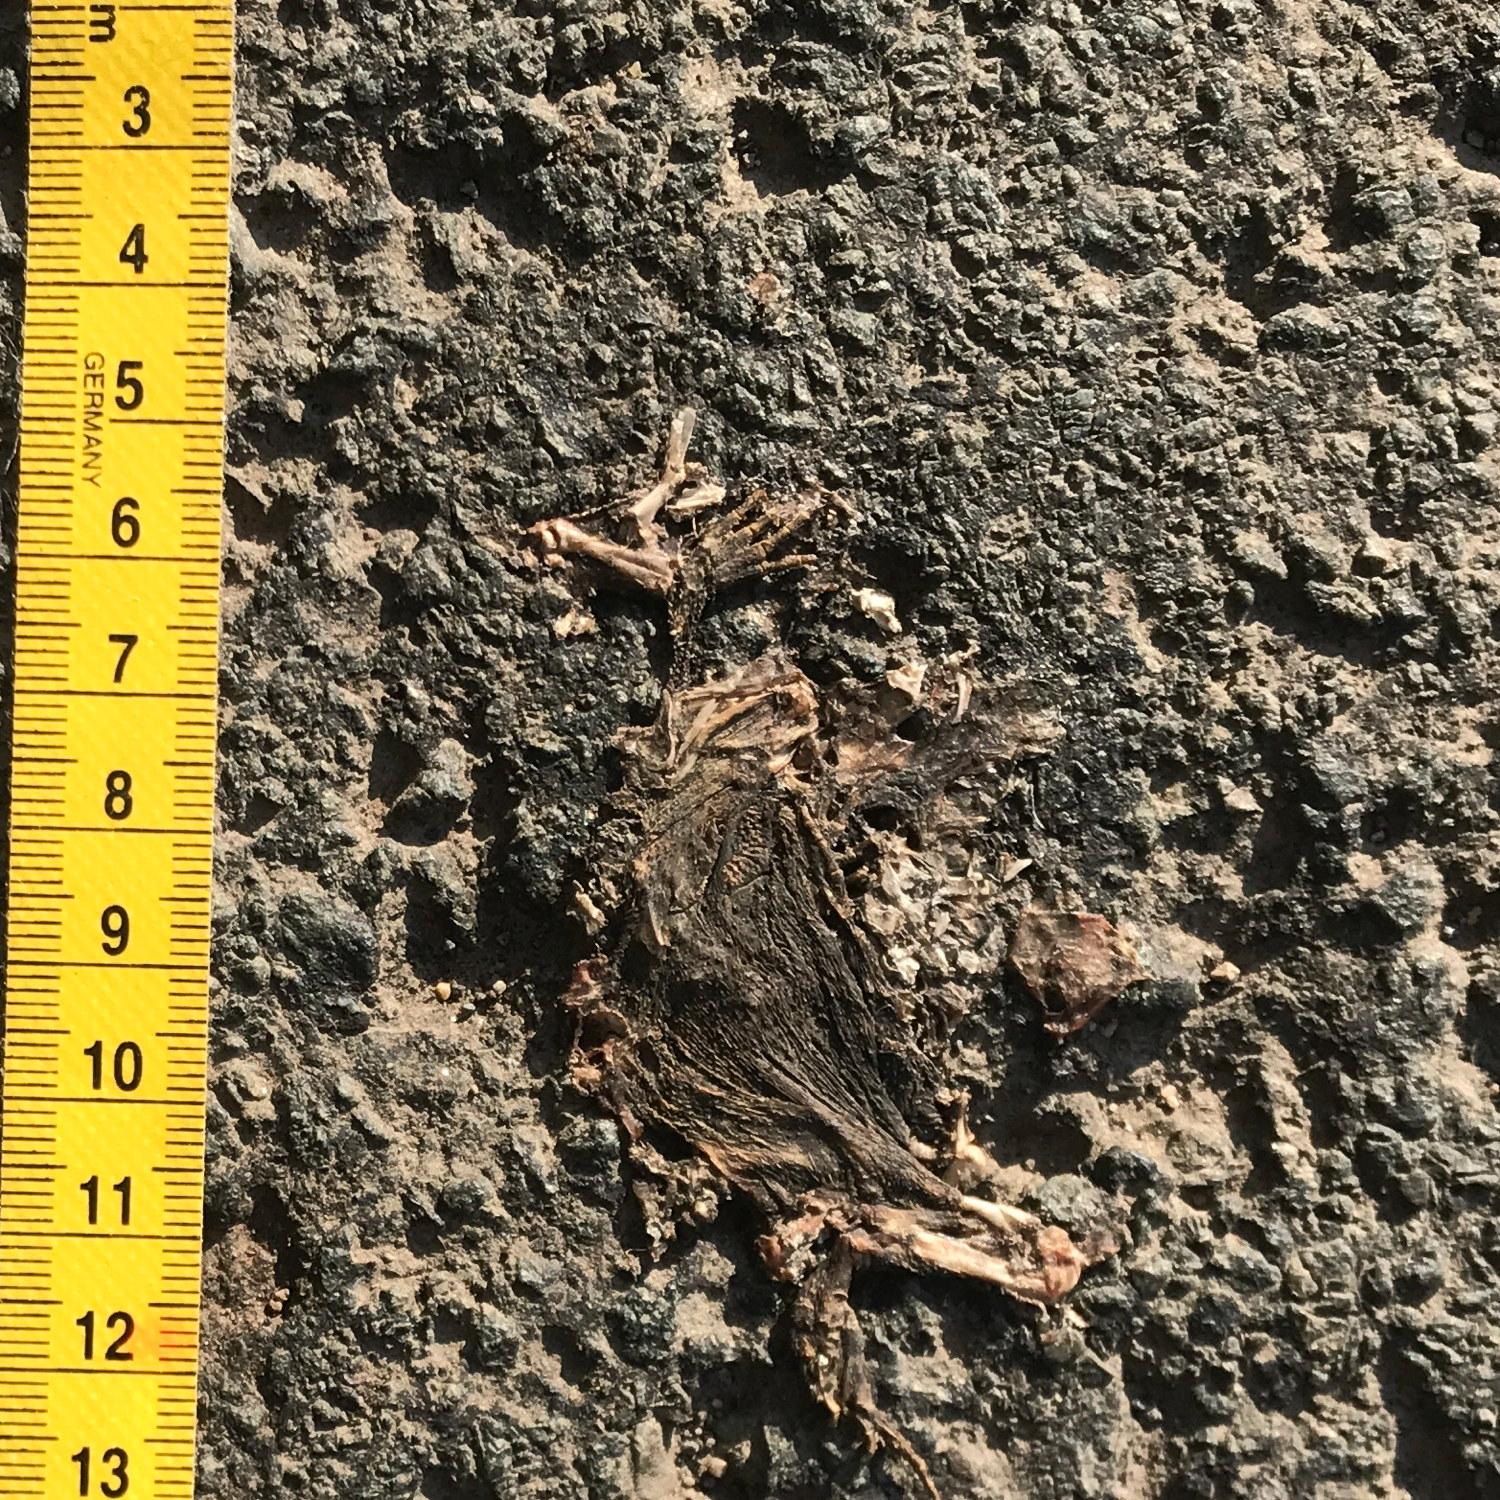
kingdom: Animalia
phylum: Chordata
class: Amphibia
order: Anura
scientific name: Anura
